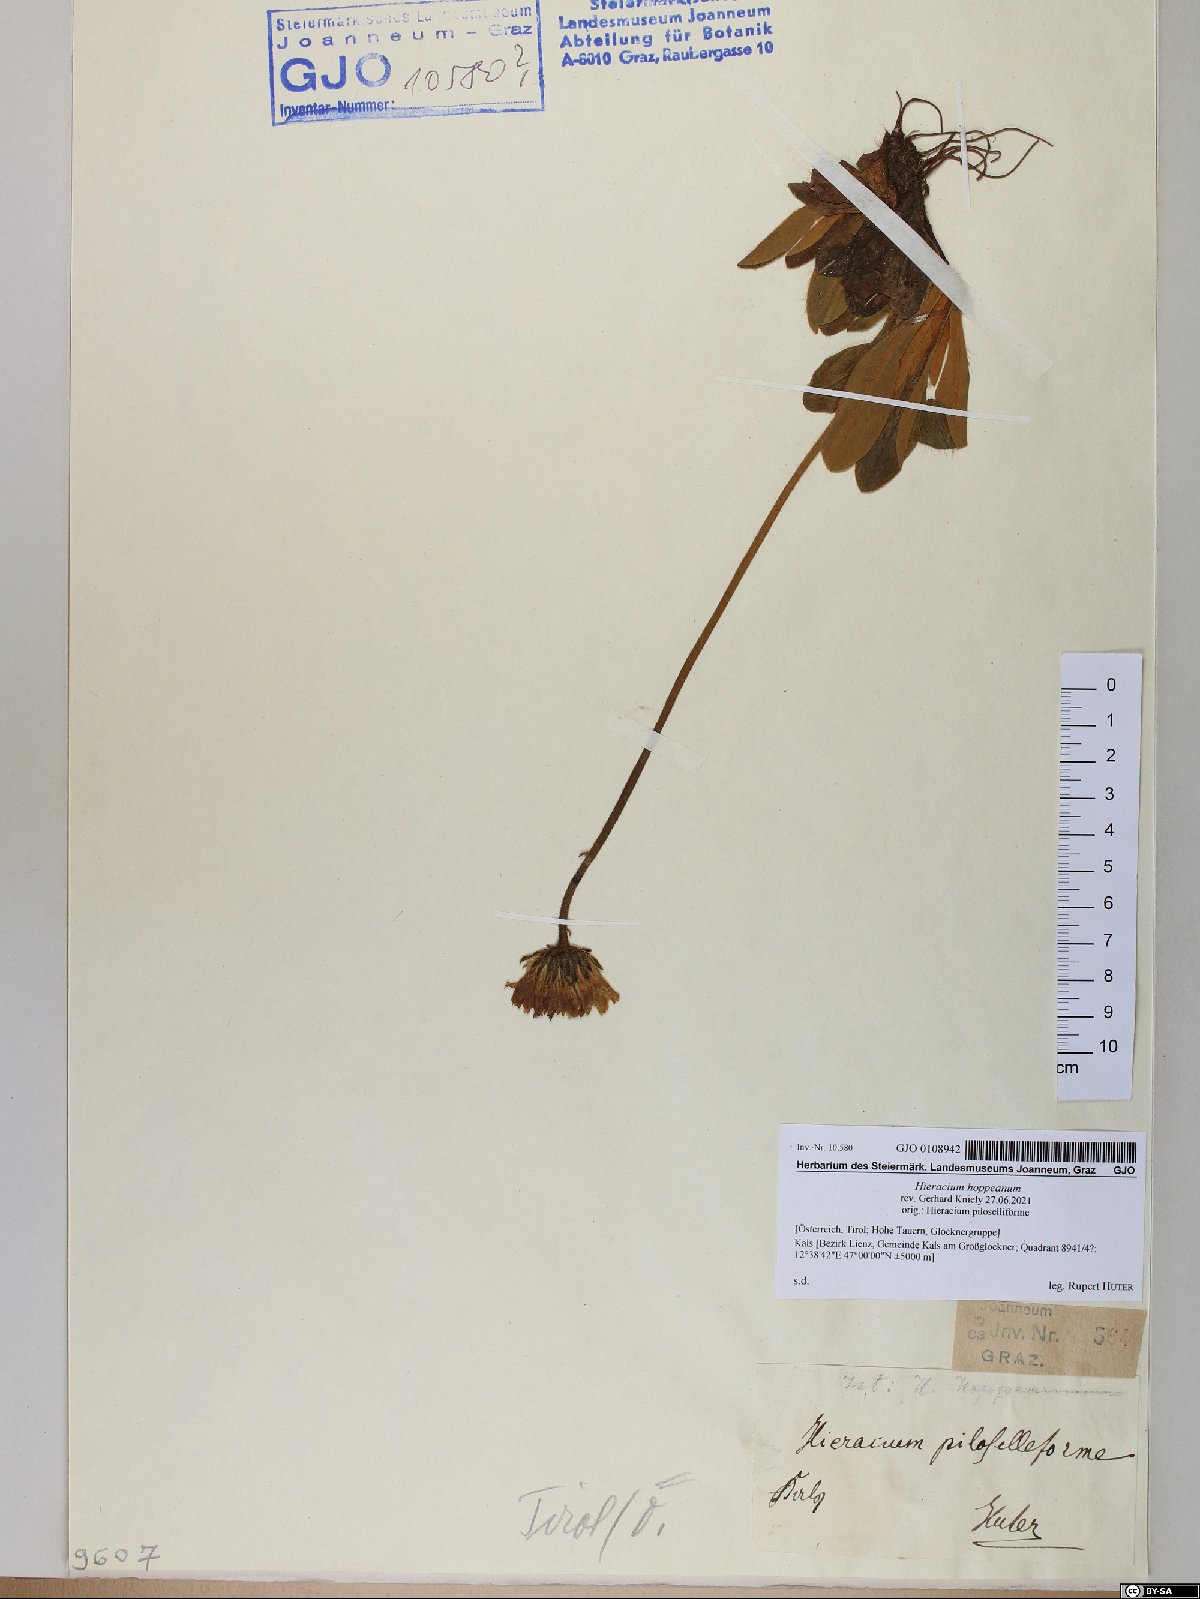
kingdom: Plantae
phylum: Tracheophyta
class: Magnoliopsida
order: Asterales
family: Asteraceae
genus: Pilosella
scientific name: Pilosella hoppeana
